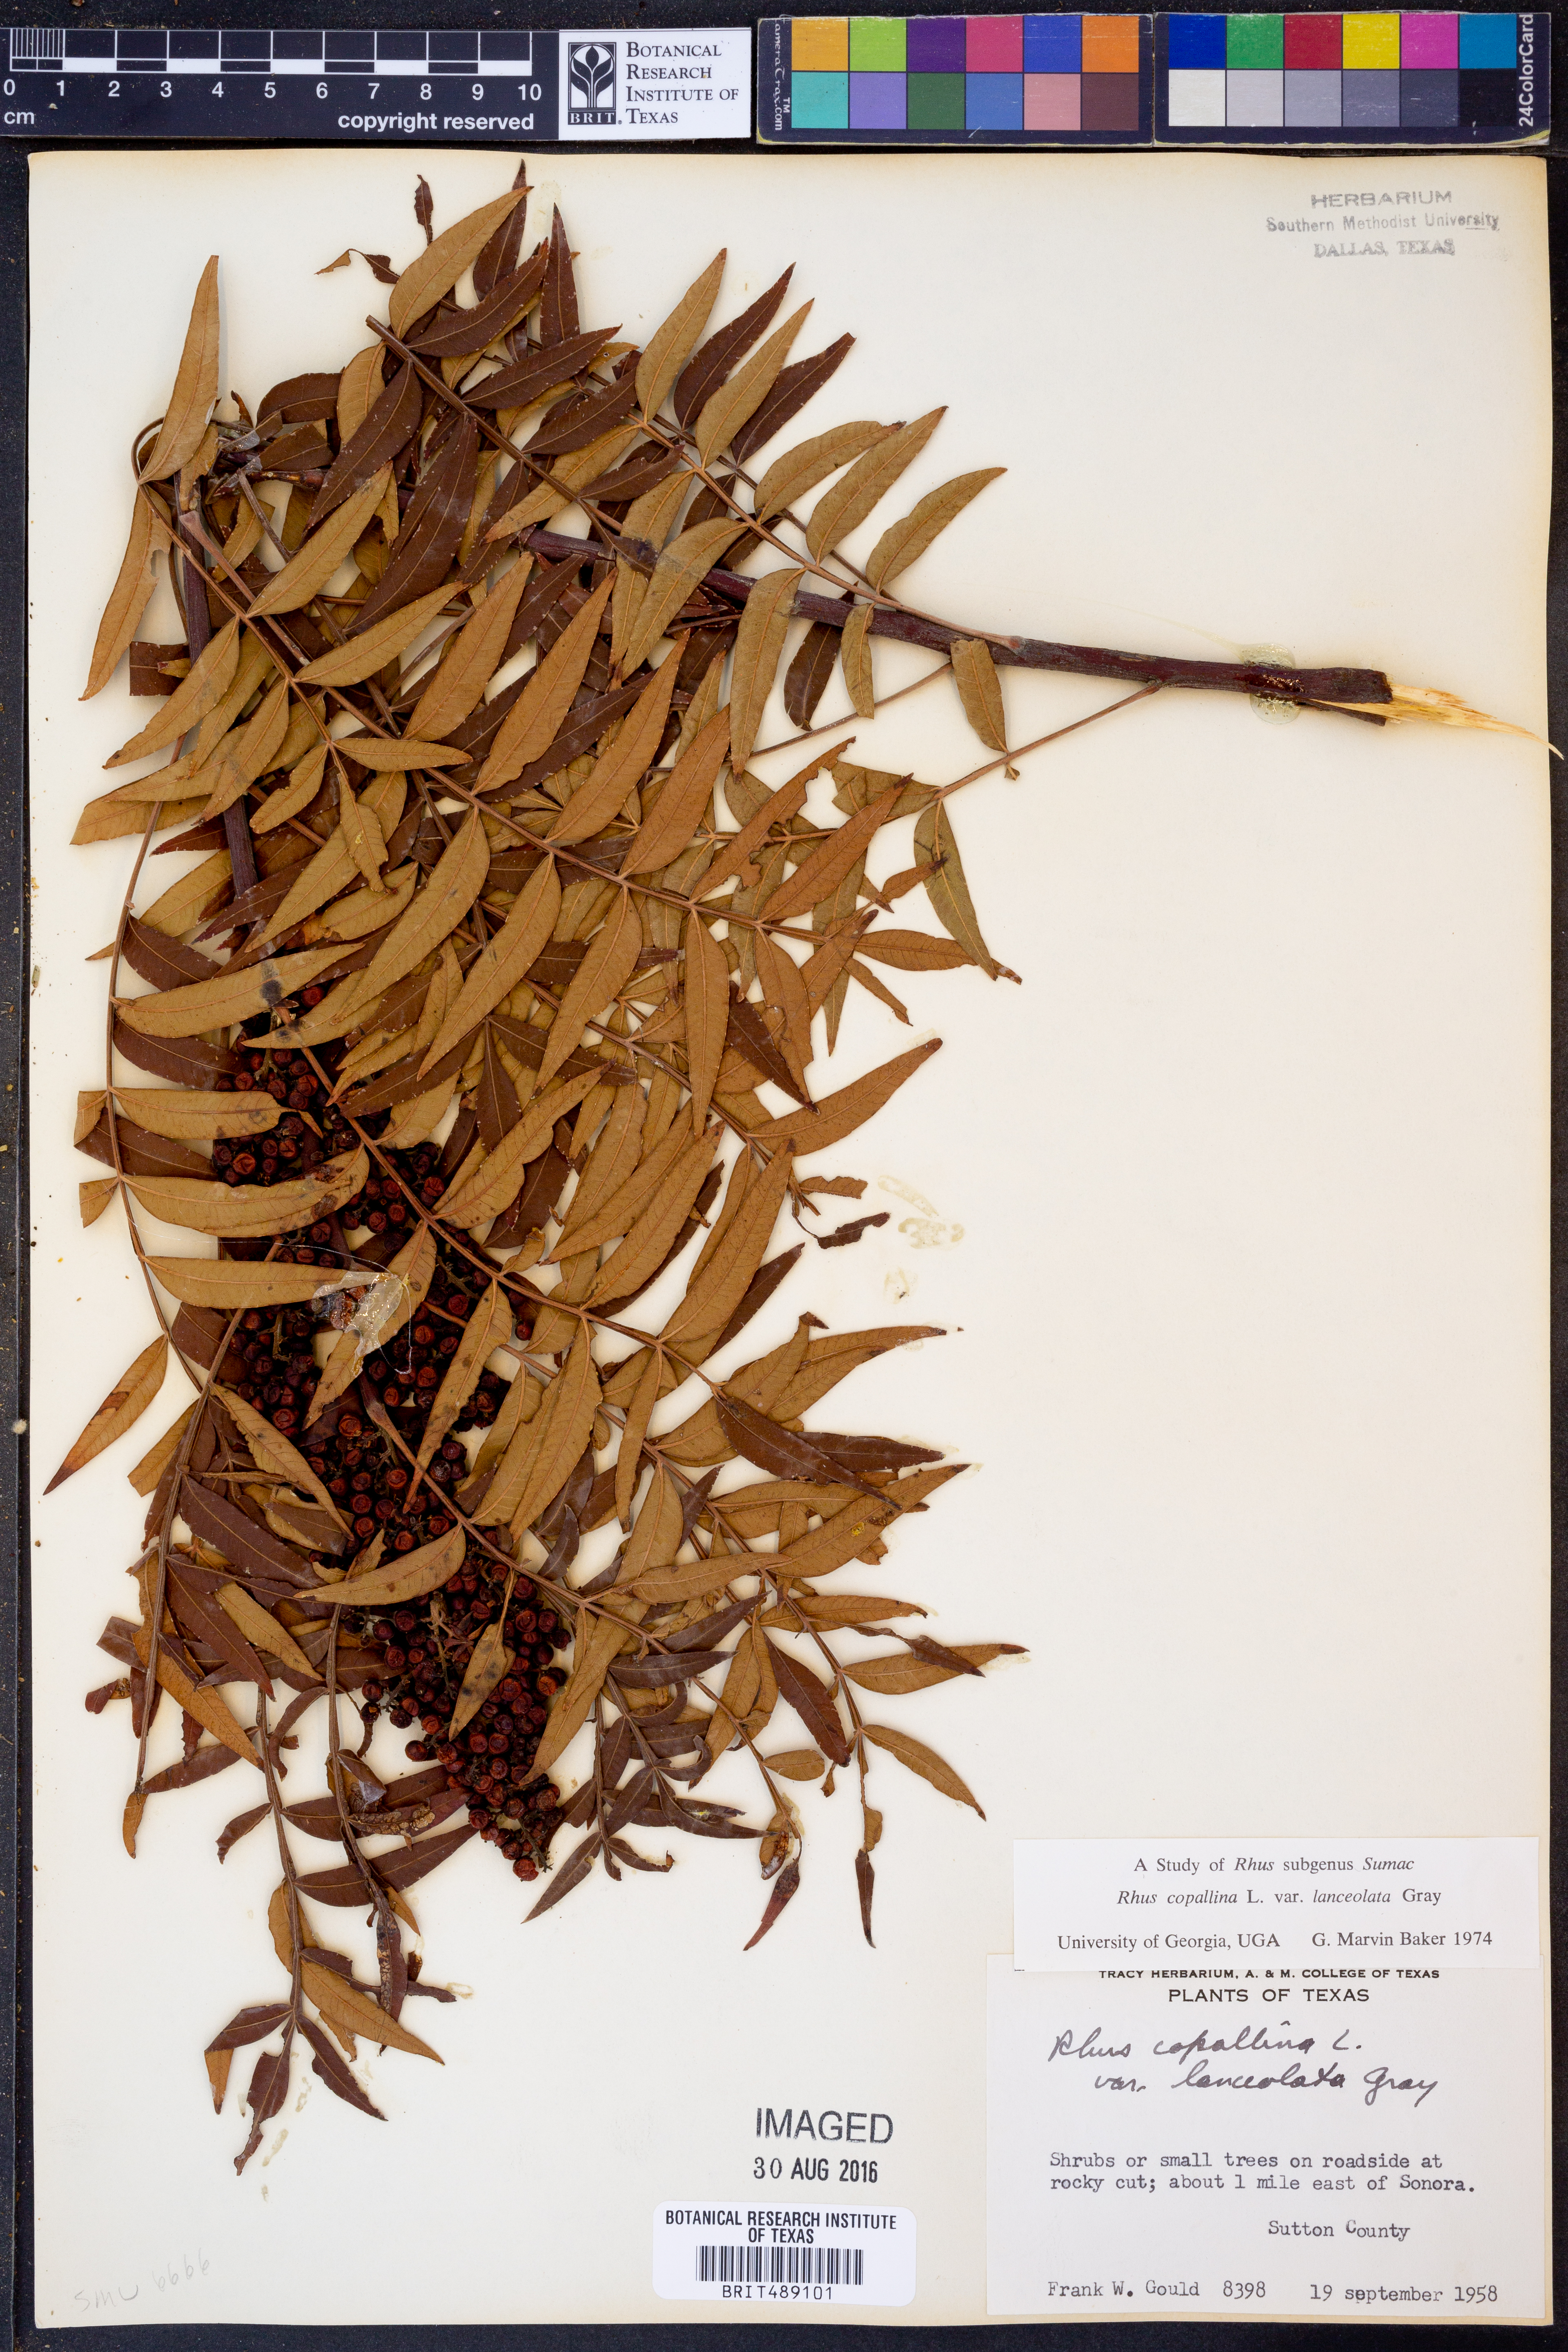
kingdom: Plantae
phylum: Tracheophyta
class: Magnoliopsida
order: Sapindales
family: Anacardiaceae
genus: Rhus
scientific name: Rhus lanceolata
